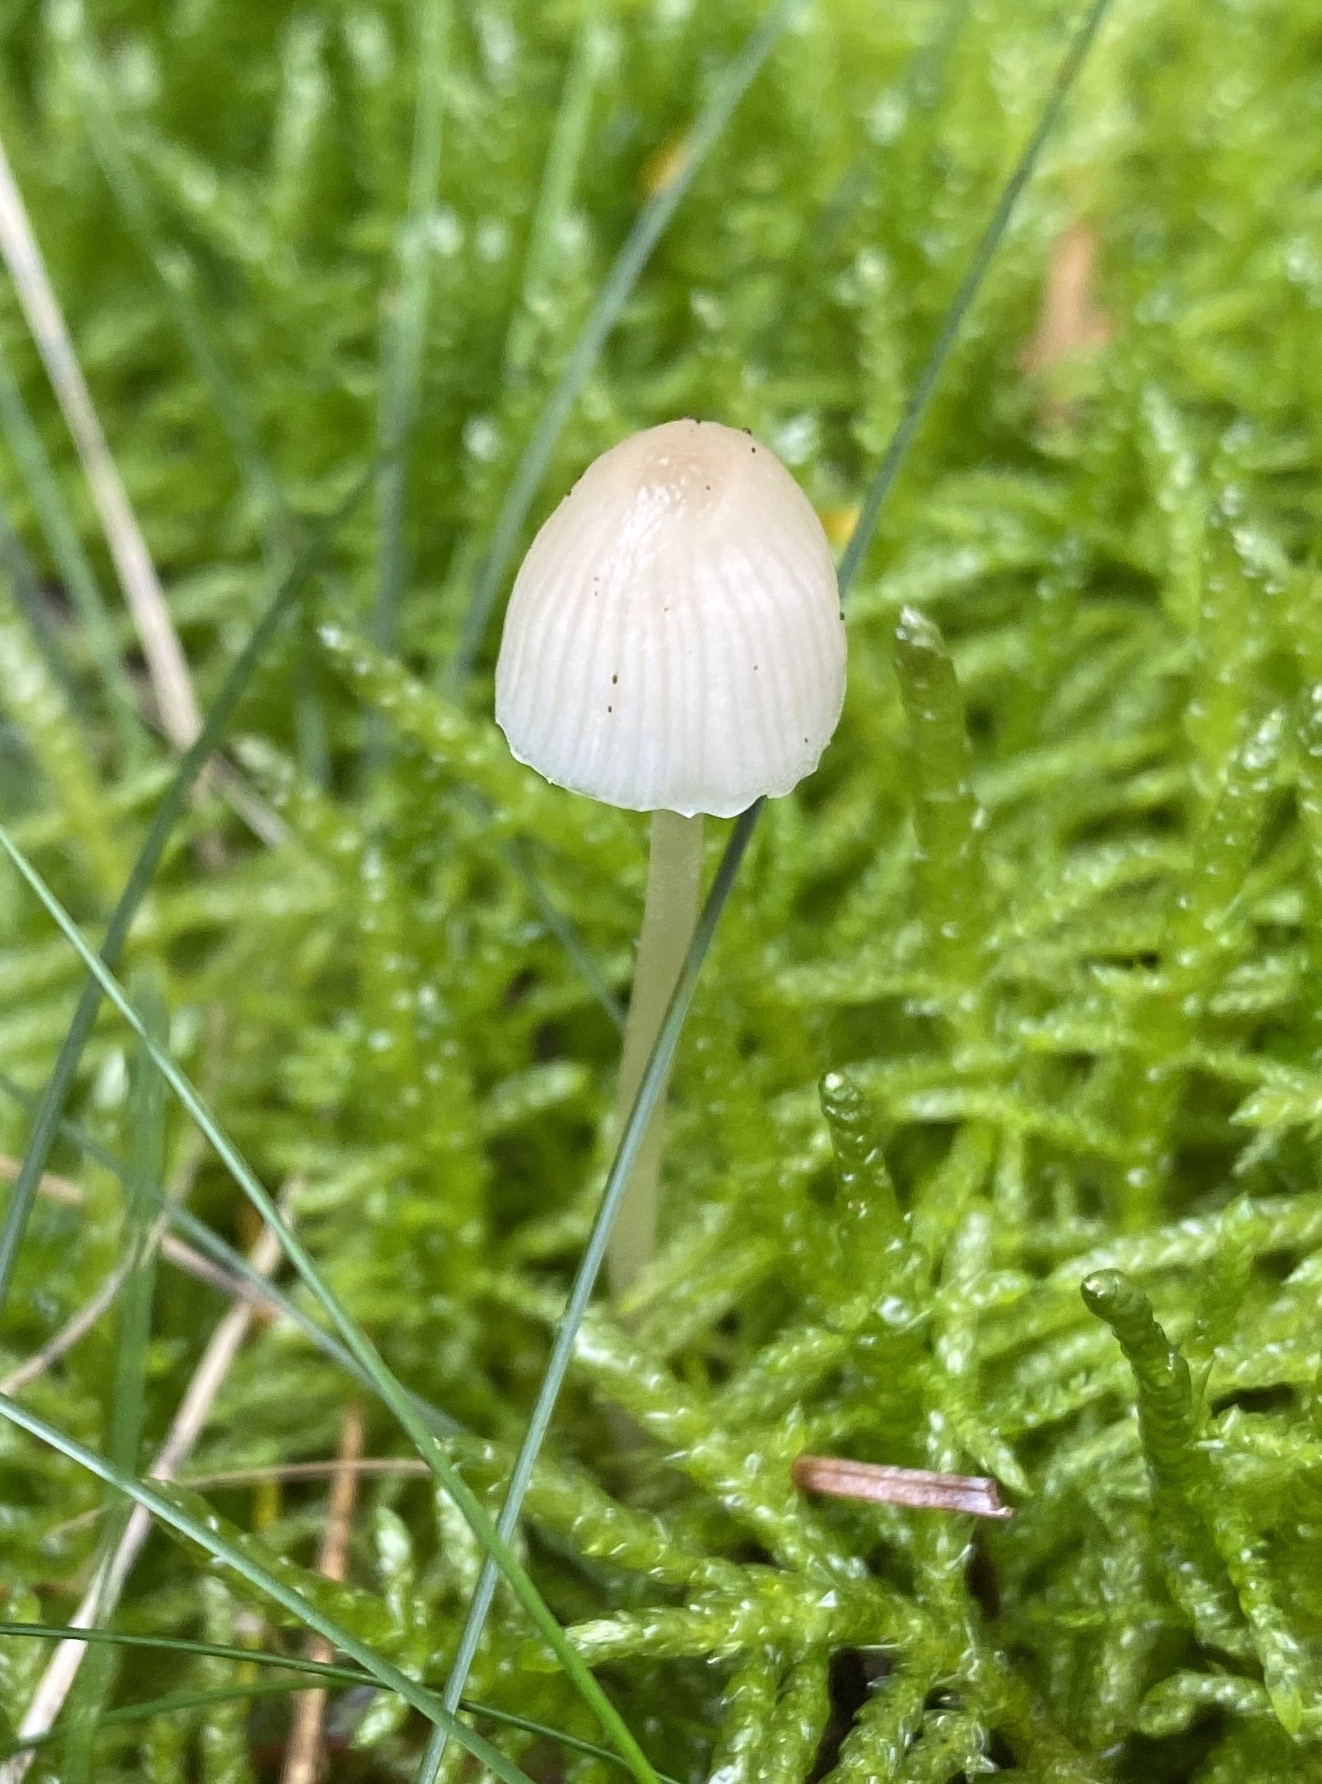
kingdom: Fungi
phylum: Basidiomycota
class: Agaricomycetes
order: Agaricales
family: Mycenaceae
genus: Mycena
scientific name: Mycena
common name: huesvamp
